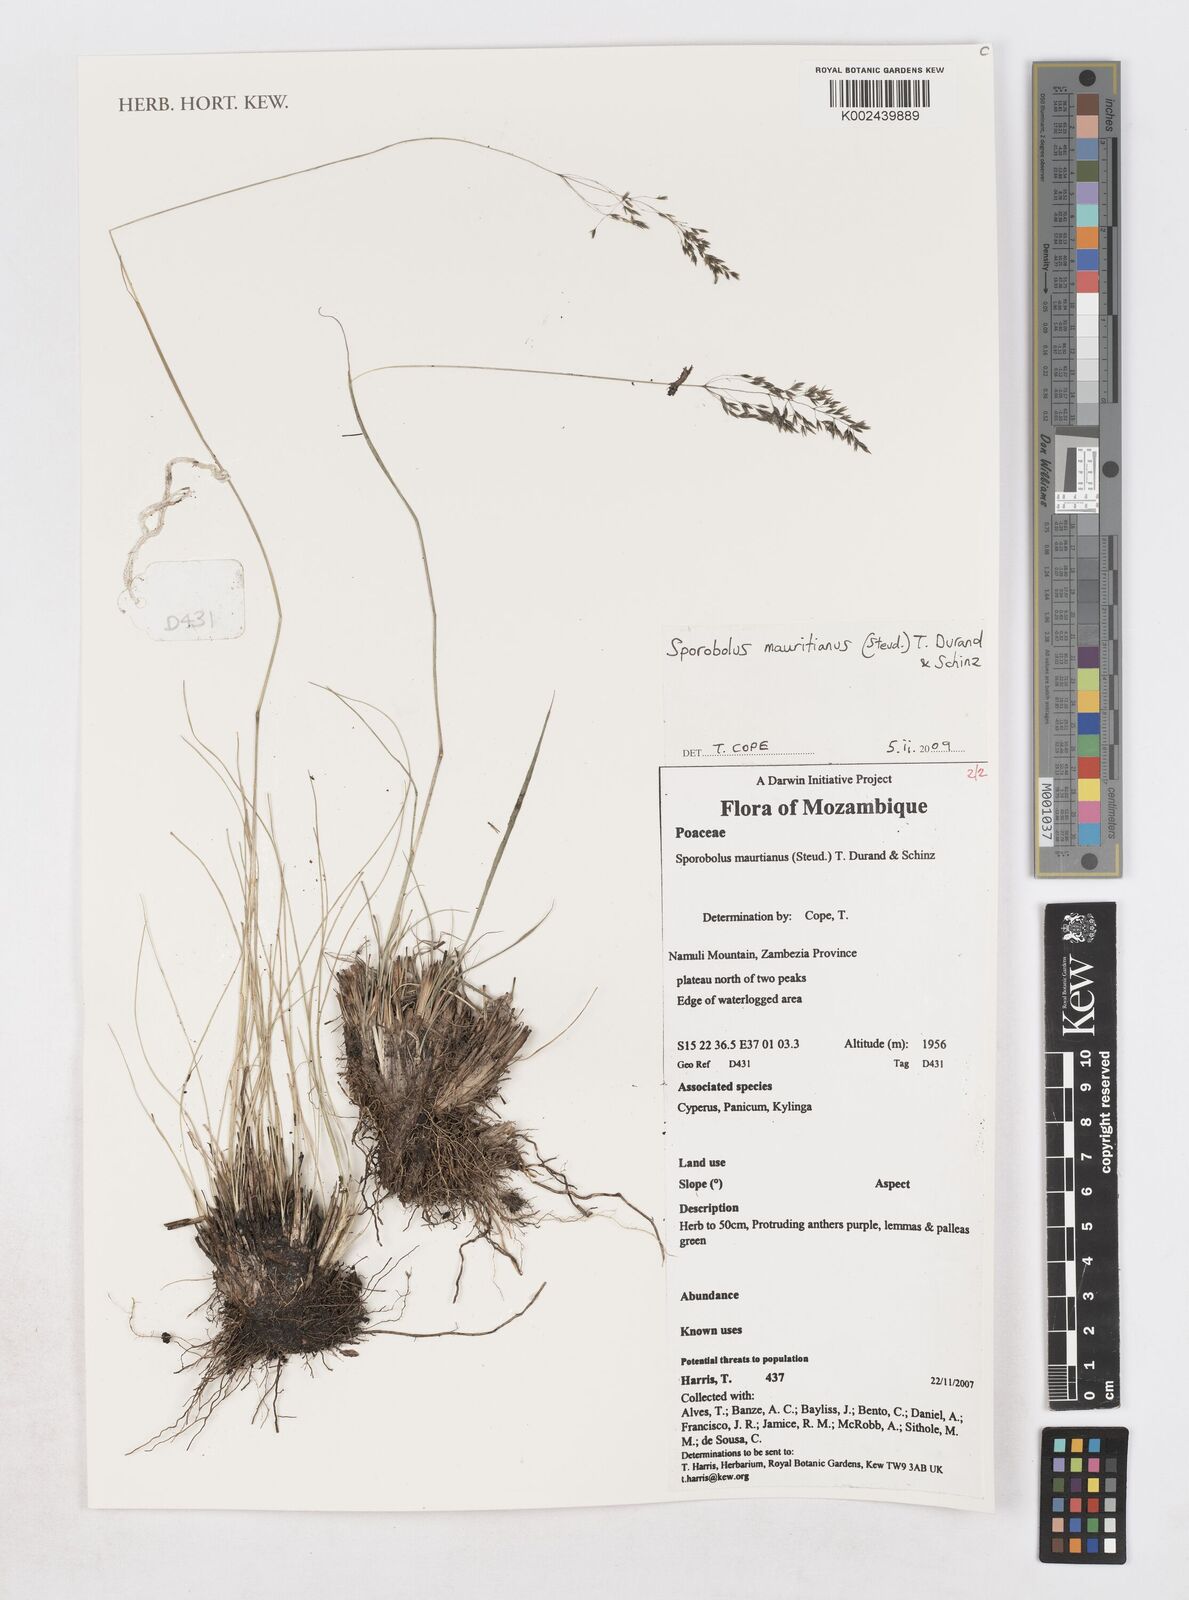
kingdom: Plantae
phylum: Tracheophyta
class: Liliopsida
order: Poales
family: Poaceae
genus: Sporobolus
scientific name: Sporobolus subulatus
